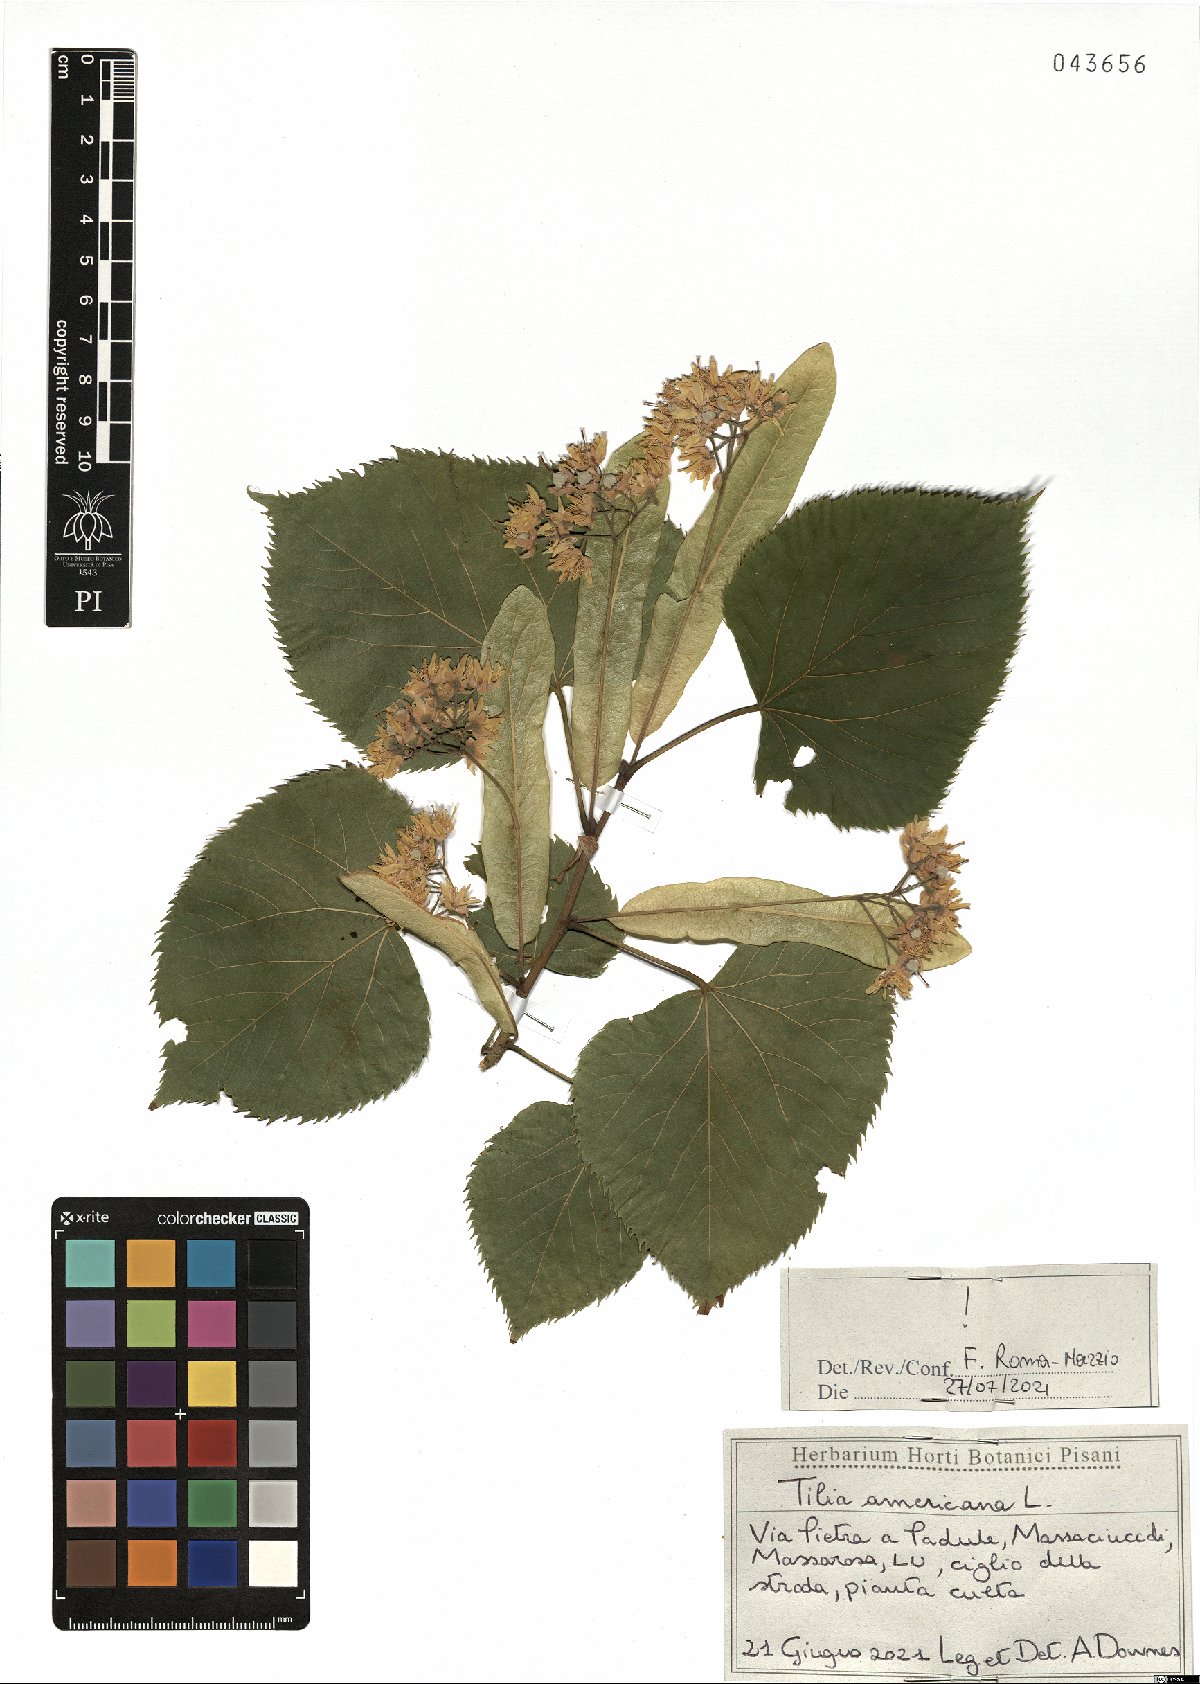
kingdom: Plantae
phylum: Tracheophyta
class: Magnoliopsida
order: Malvales
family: Malvaceae
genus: Tilia
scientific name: Tilia americana
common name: Basswood
